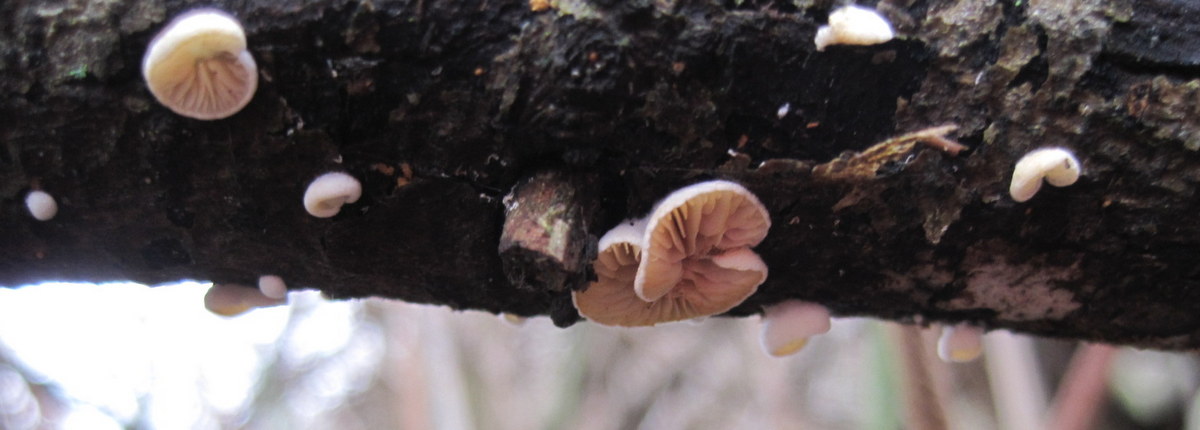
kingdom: Fungi
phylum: Basidiomycota
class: Agaricomycetes
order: Agaricales
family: Crepidotaceae
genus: Crepidotus
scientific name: Crepidotus cesatii
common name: almindelig muslingesvamp
